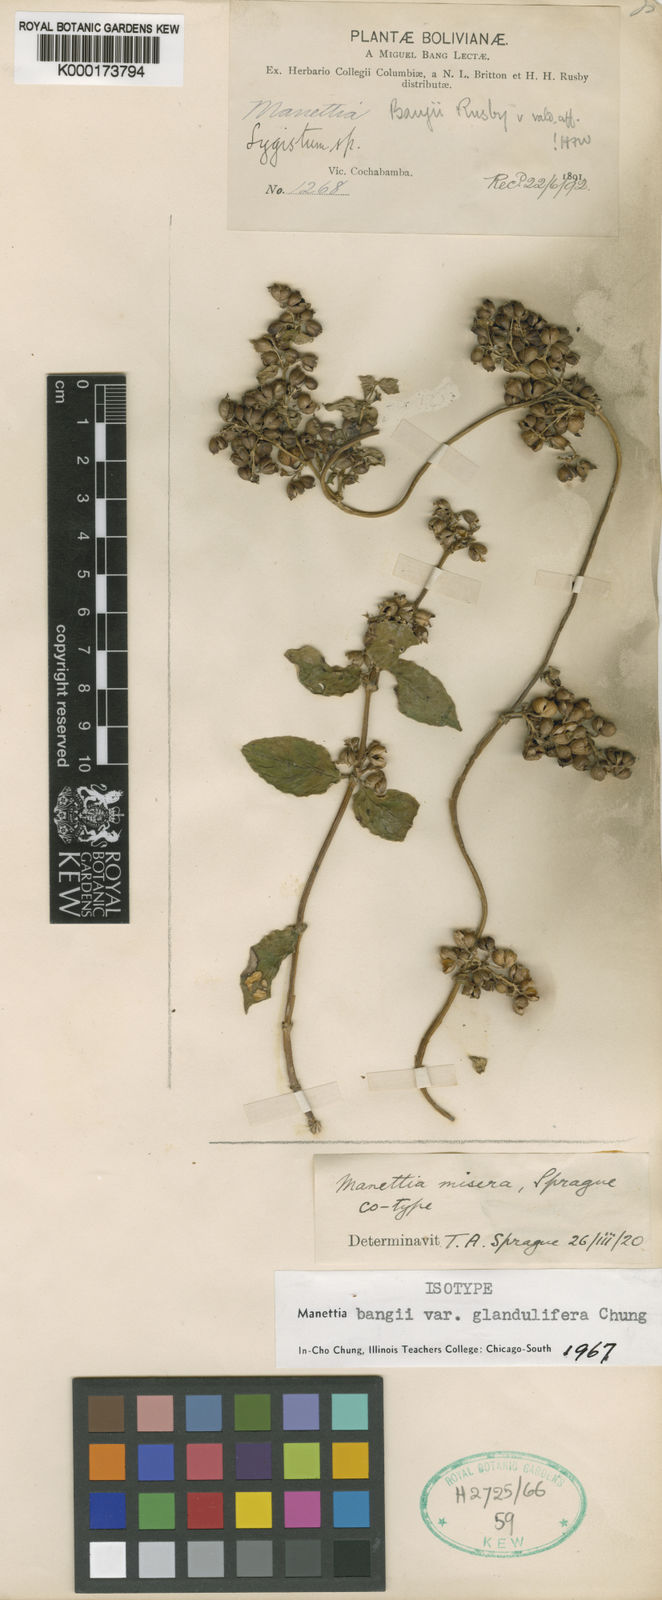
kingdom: Plantae
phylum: Tracheophyta
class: Magnoliopsida
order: Gentianales
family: Rubiaceae
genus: Manettia
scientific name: Manettia bangii
